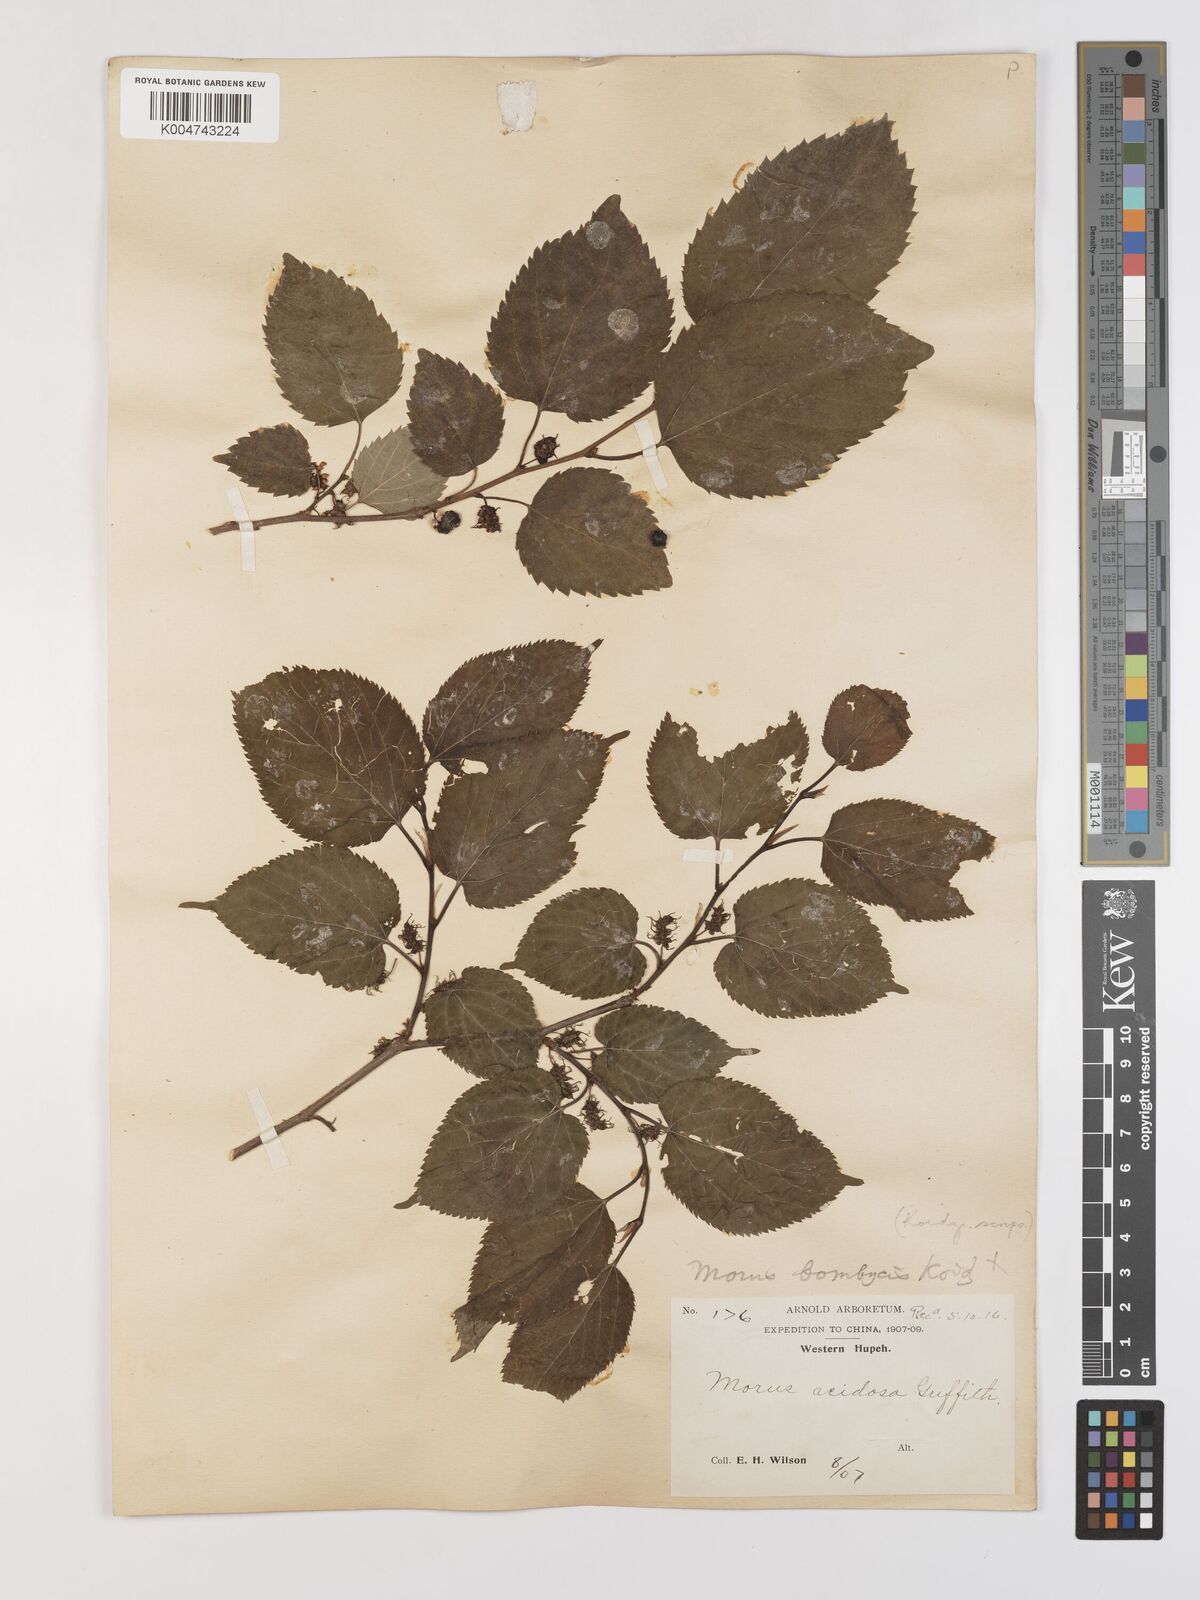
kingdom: Plantae
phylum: Tracheophyta
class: Magnoliopsida
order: Rosales
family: Moraceae
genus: Morus
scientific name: Morus indica
